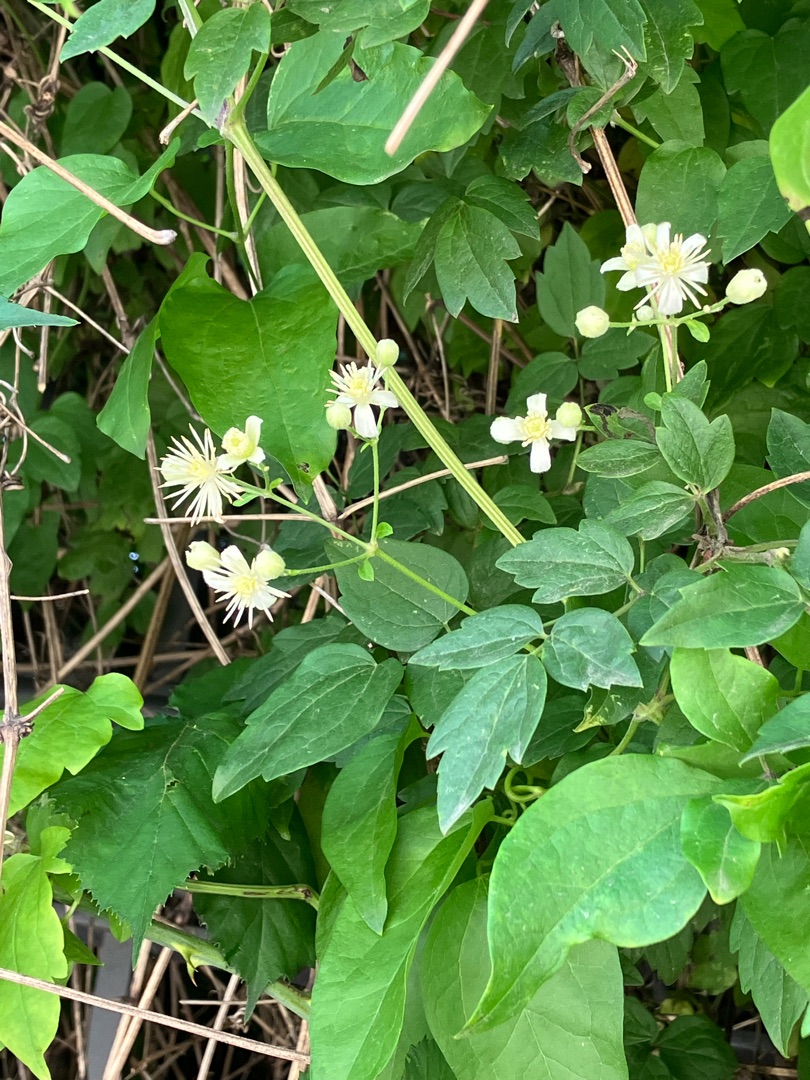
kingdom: Plantae
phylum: Tracheophyta
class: Magnoliopsida
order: Ranunculales
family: Ranunculaceae
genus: Clematis
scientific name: Clematis vitalba
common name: Skovranke
